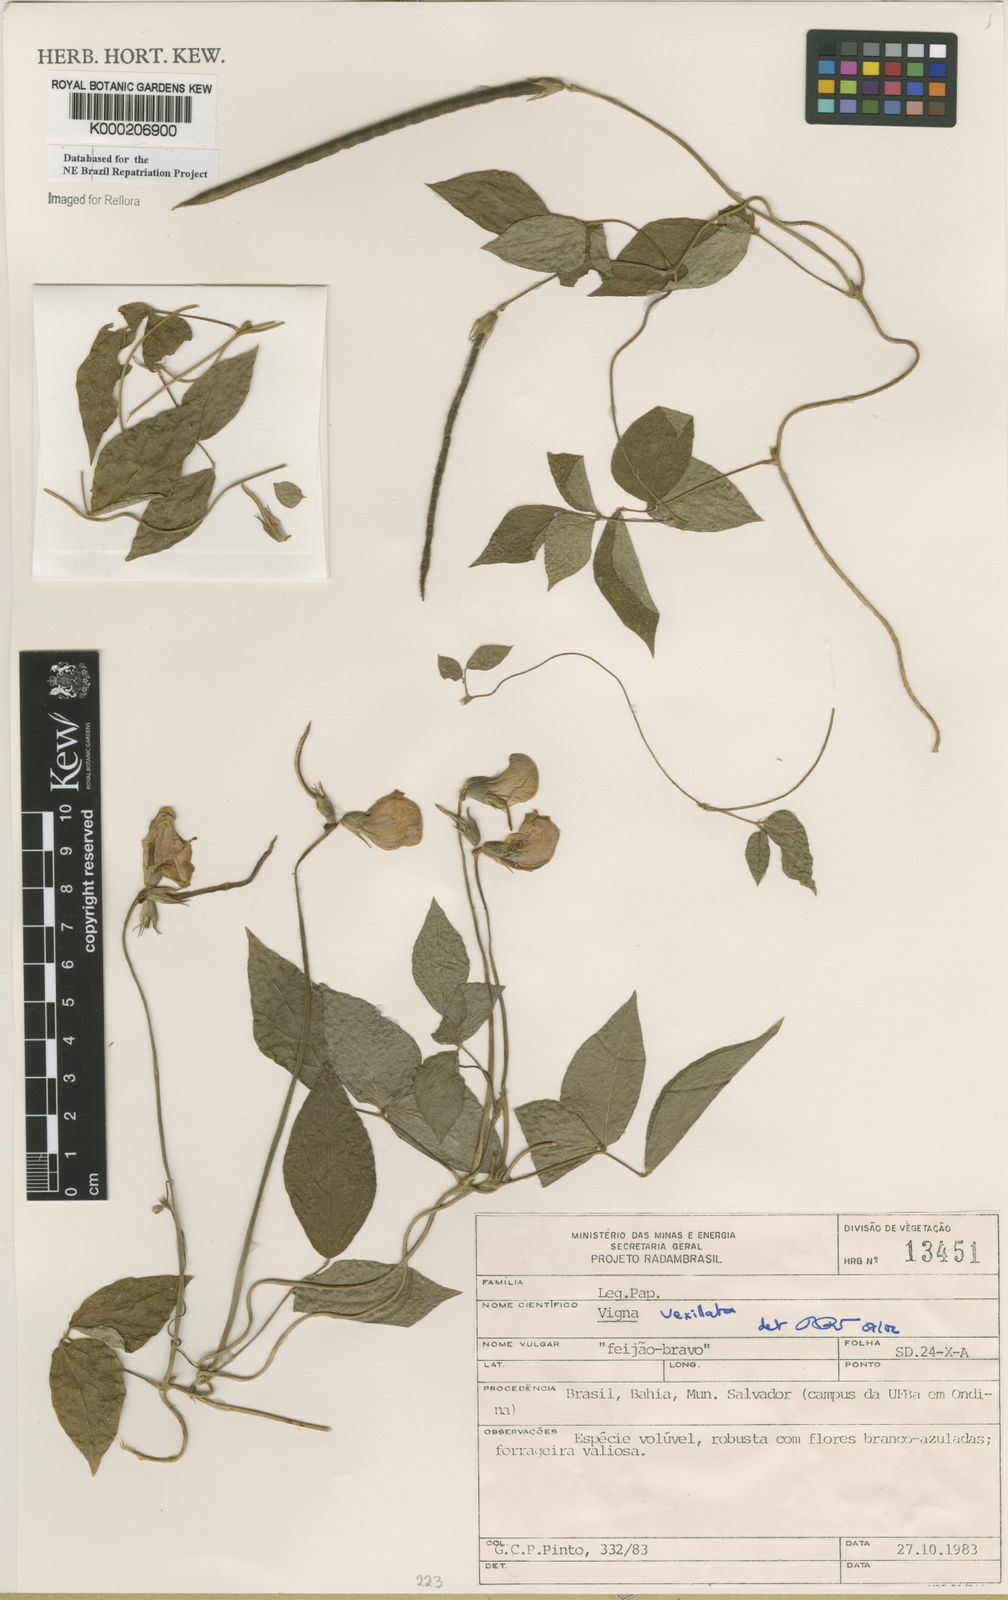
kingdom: Plantae
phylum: Tracheophyta
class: Magnoliopsida
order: Fabales
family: Fabaceae
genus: Vigna
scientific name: Vigna vexillata
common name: Zombi pea
